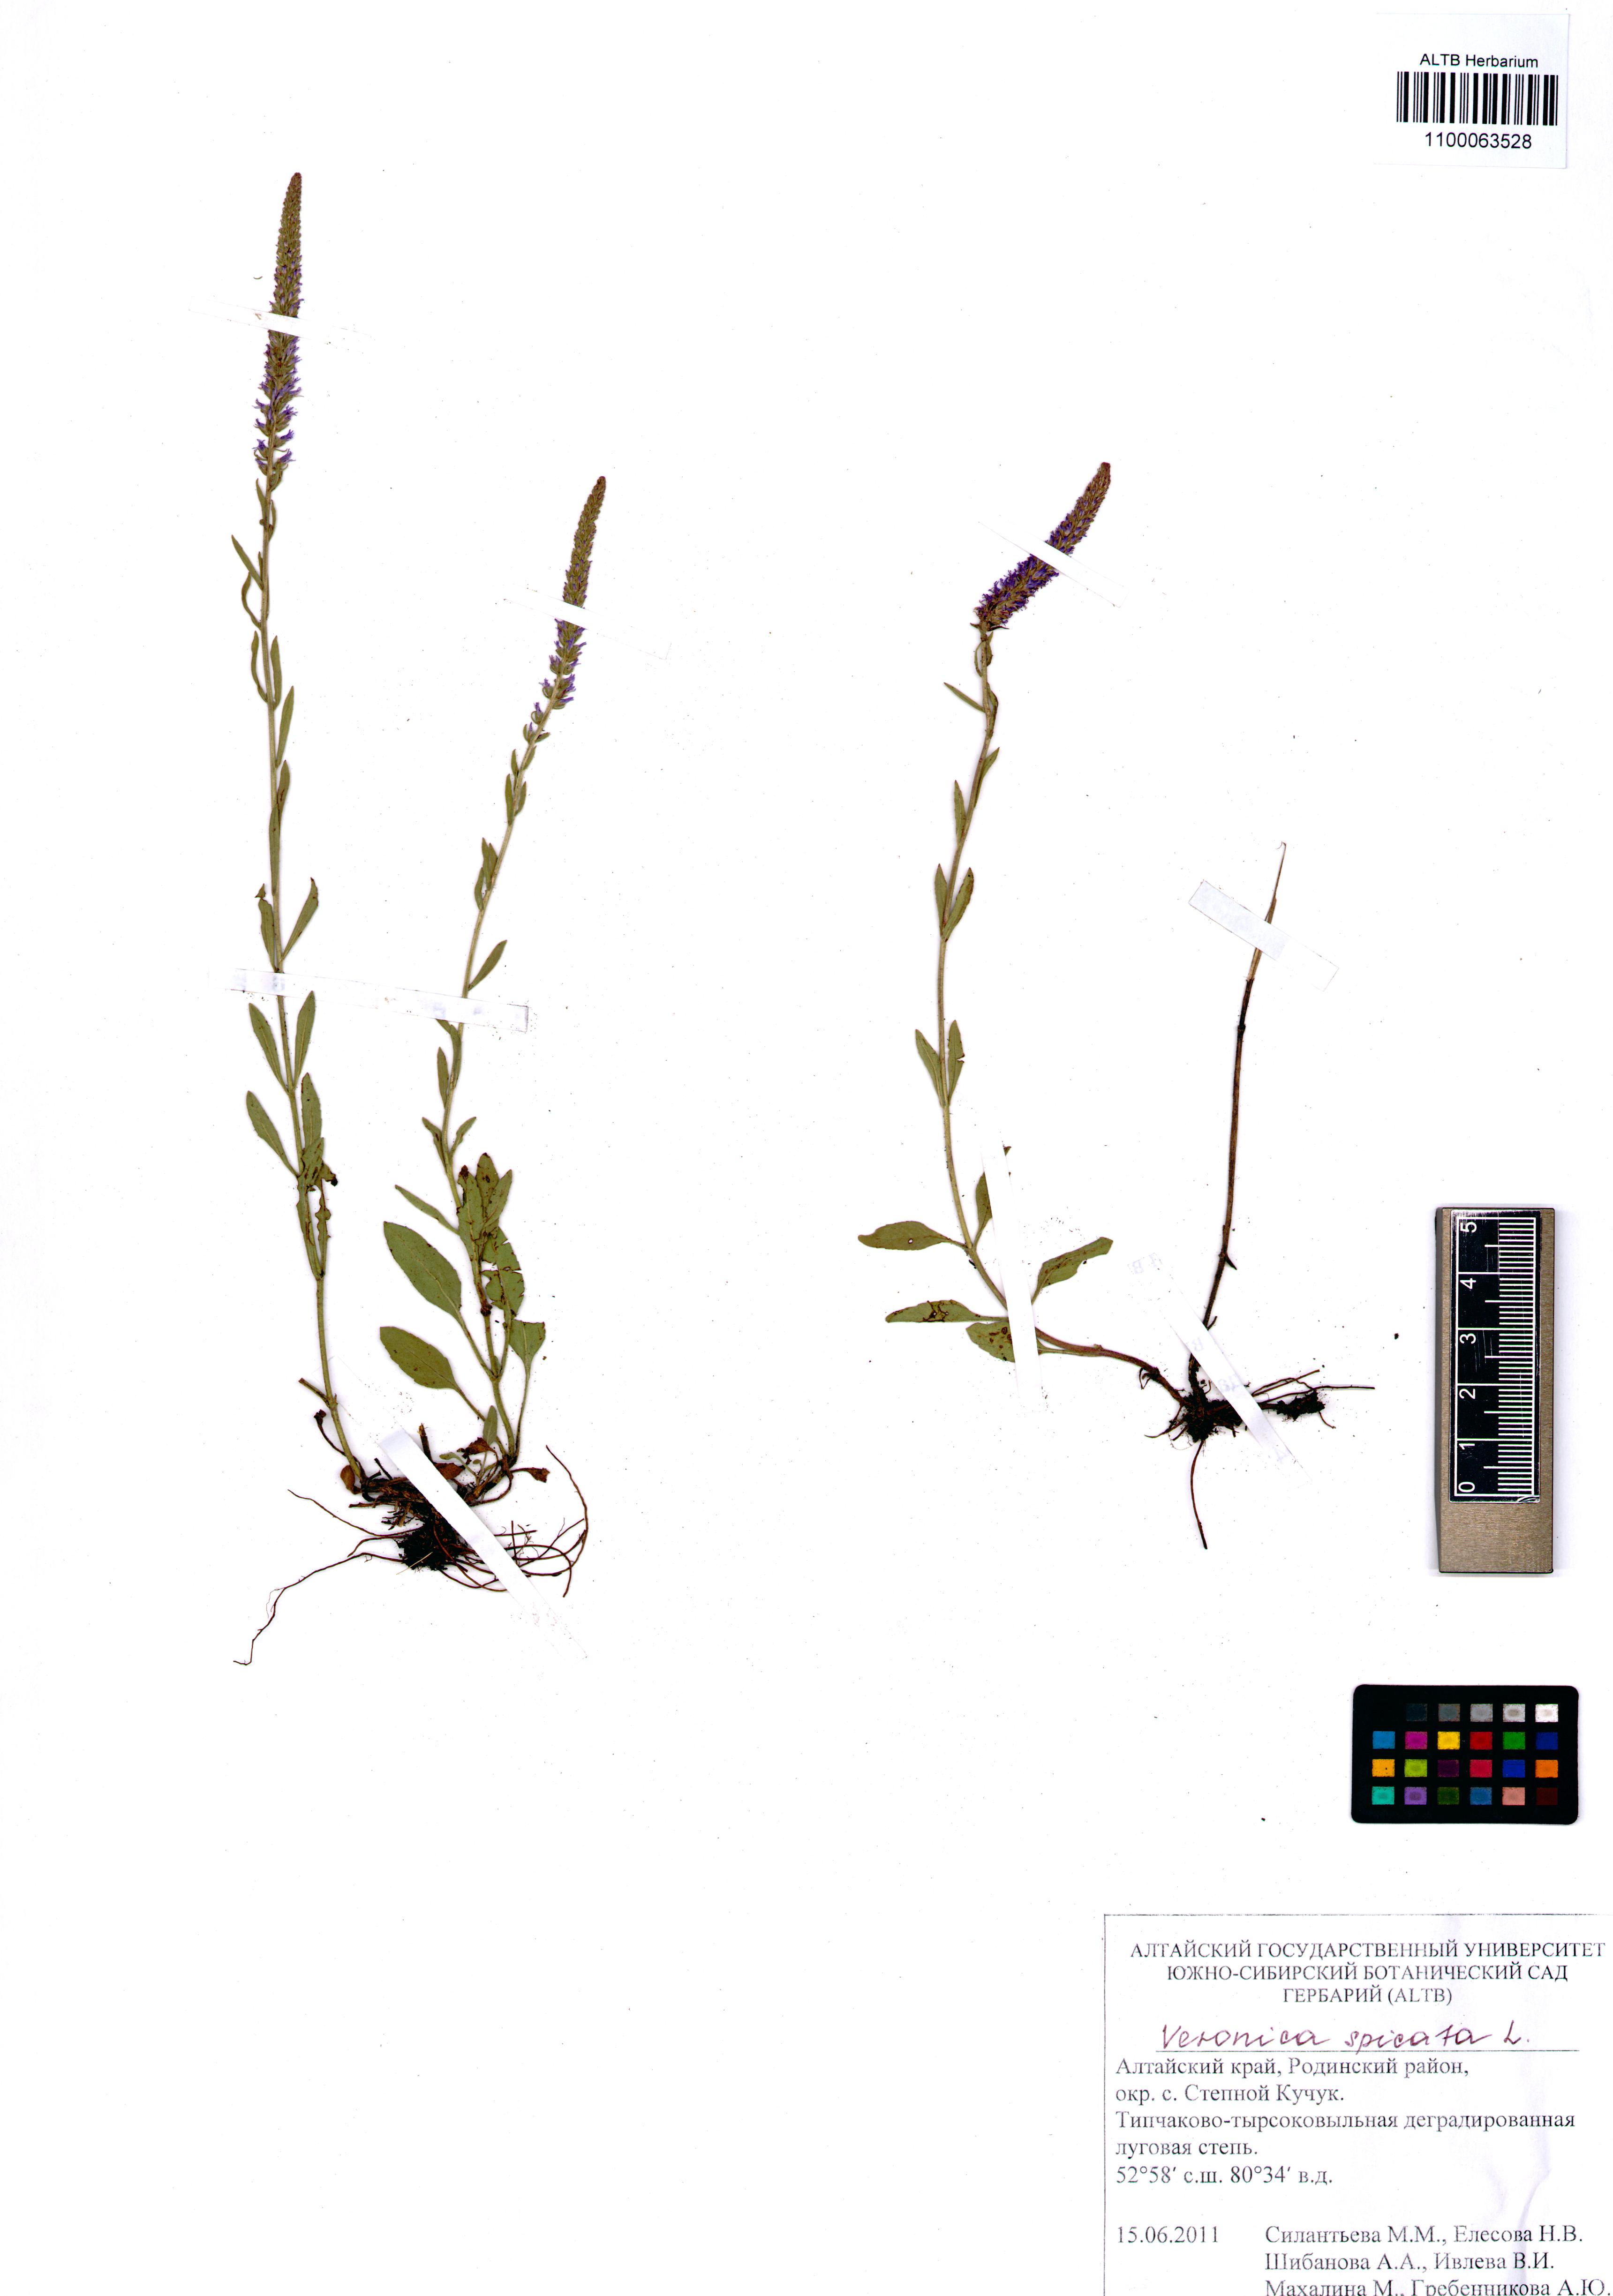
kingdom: Plantae
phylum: Tracheophyta
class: Magnoliopsida
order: Lamiales
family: Plantaginaceae
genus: Veronica
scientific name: Veronica spicata
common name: Spiked speedwell
